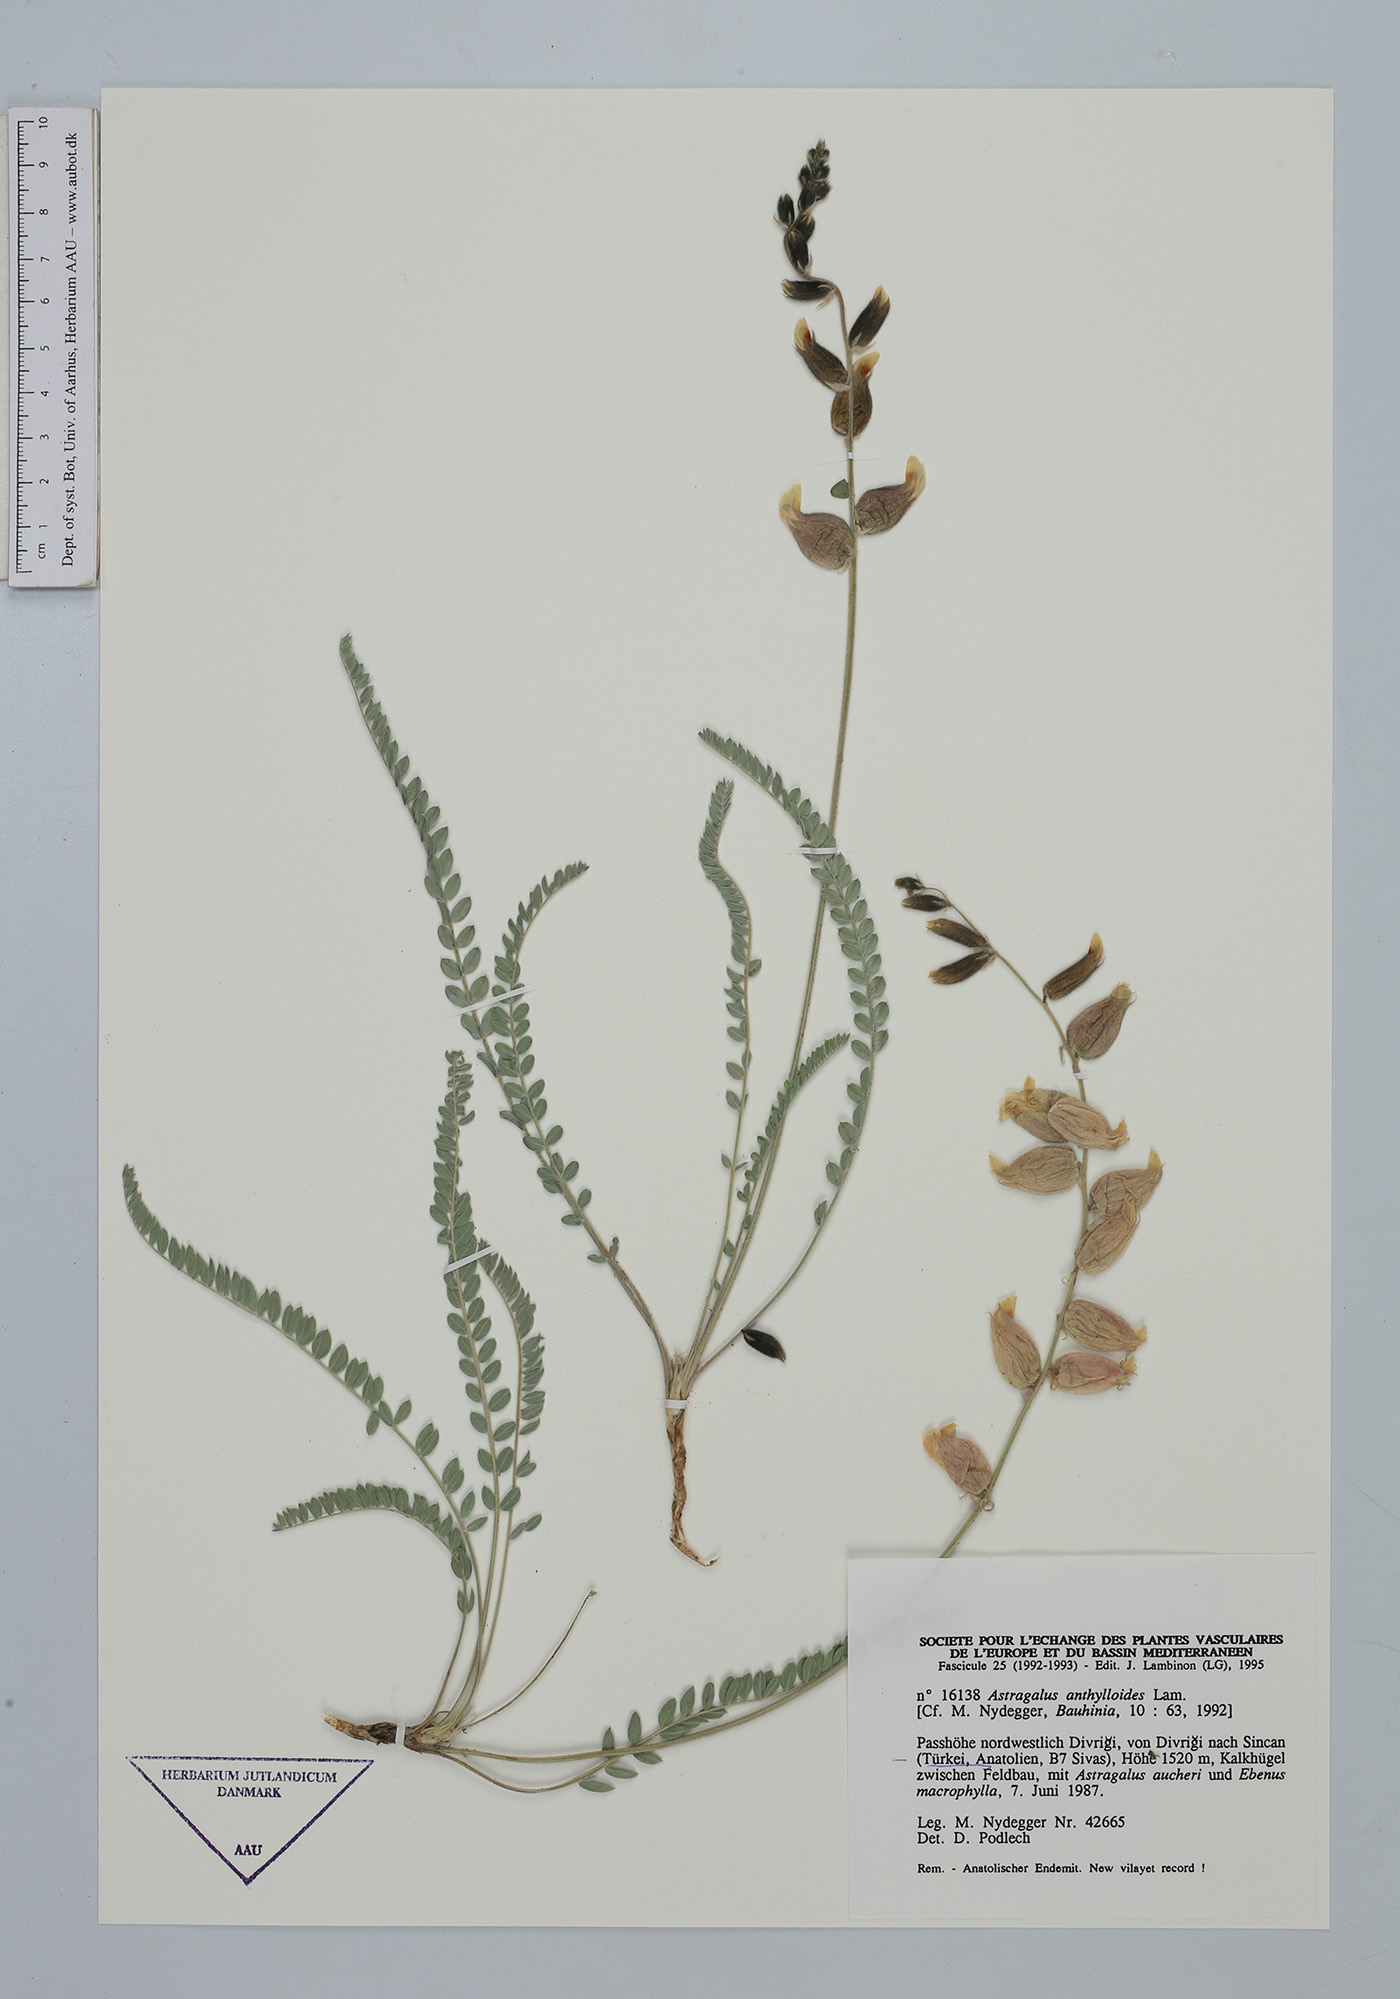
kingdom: Plantae
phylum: Tracheophyta
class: Magnoliopsida
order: Fabales
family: Fabaceae
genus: Astragalus
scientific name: Astragalus inflatus
